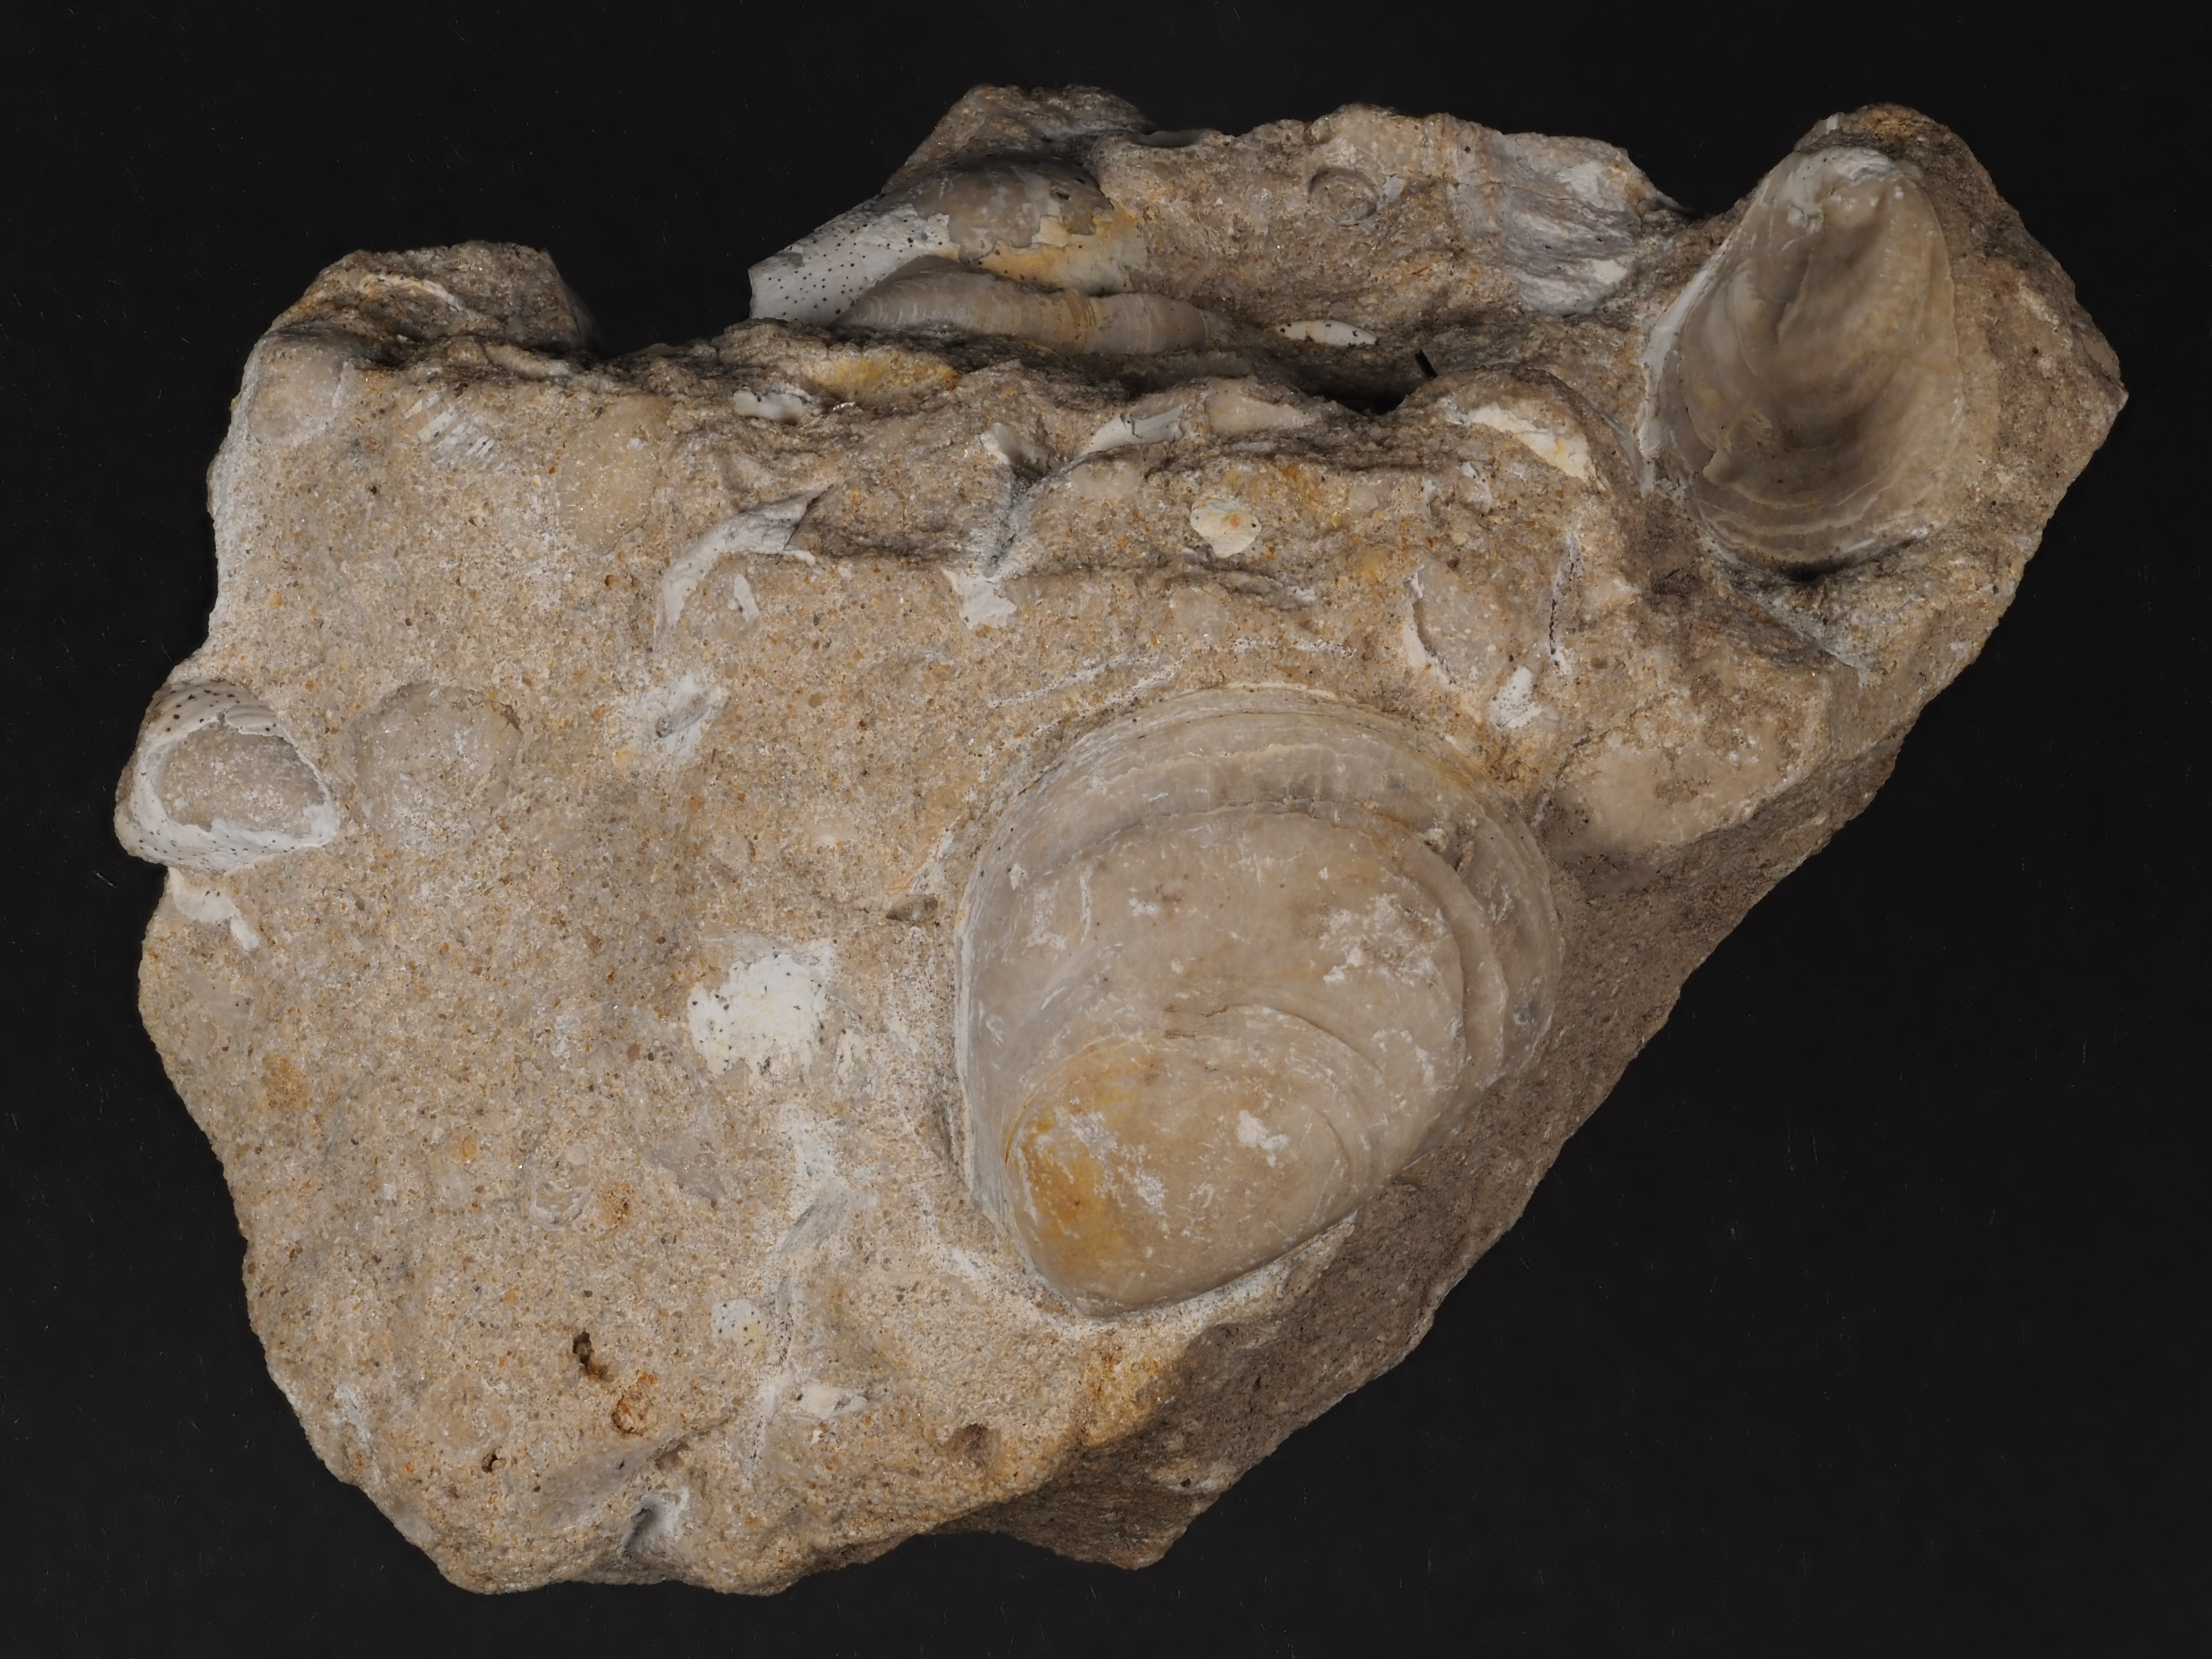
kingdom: Animalia
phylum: Mollusca
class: Bivalvia
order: Ostreida
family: Flemingostreidae
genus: Liostrea
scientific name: Liostrea
